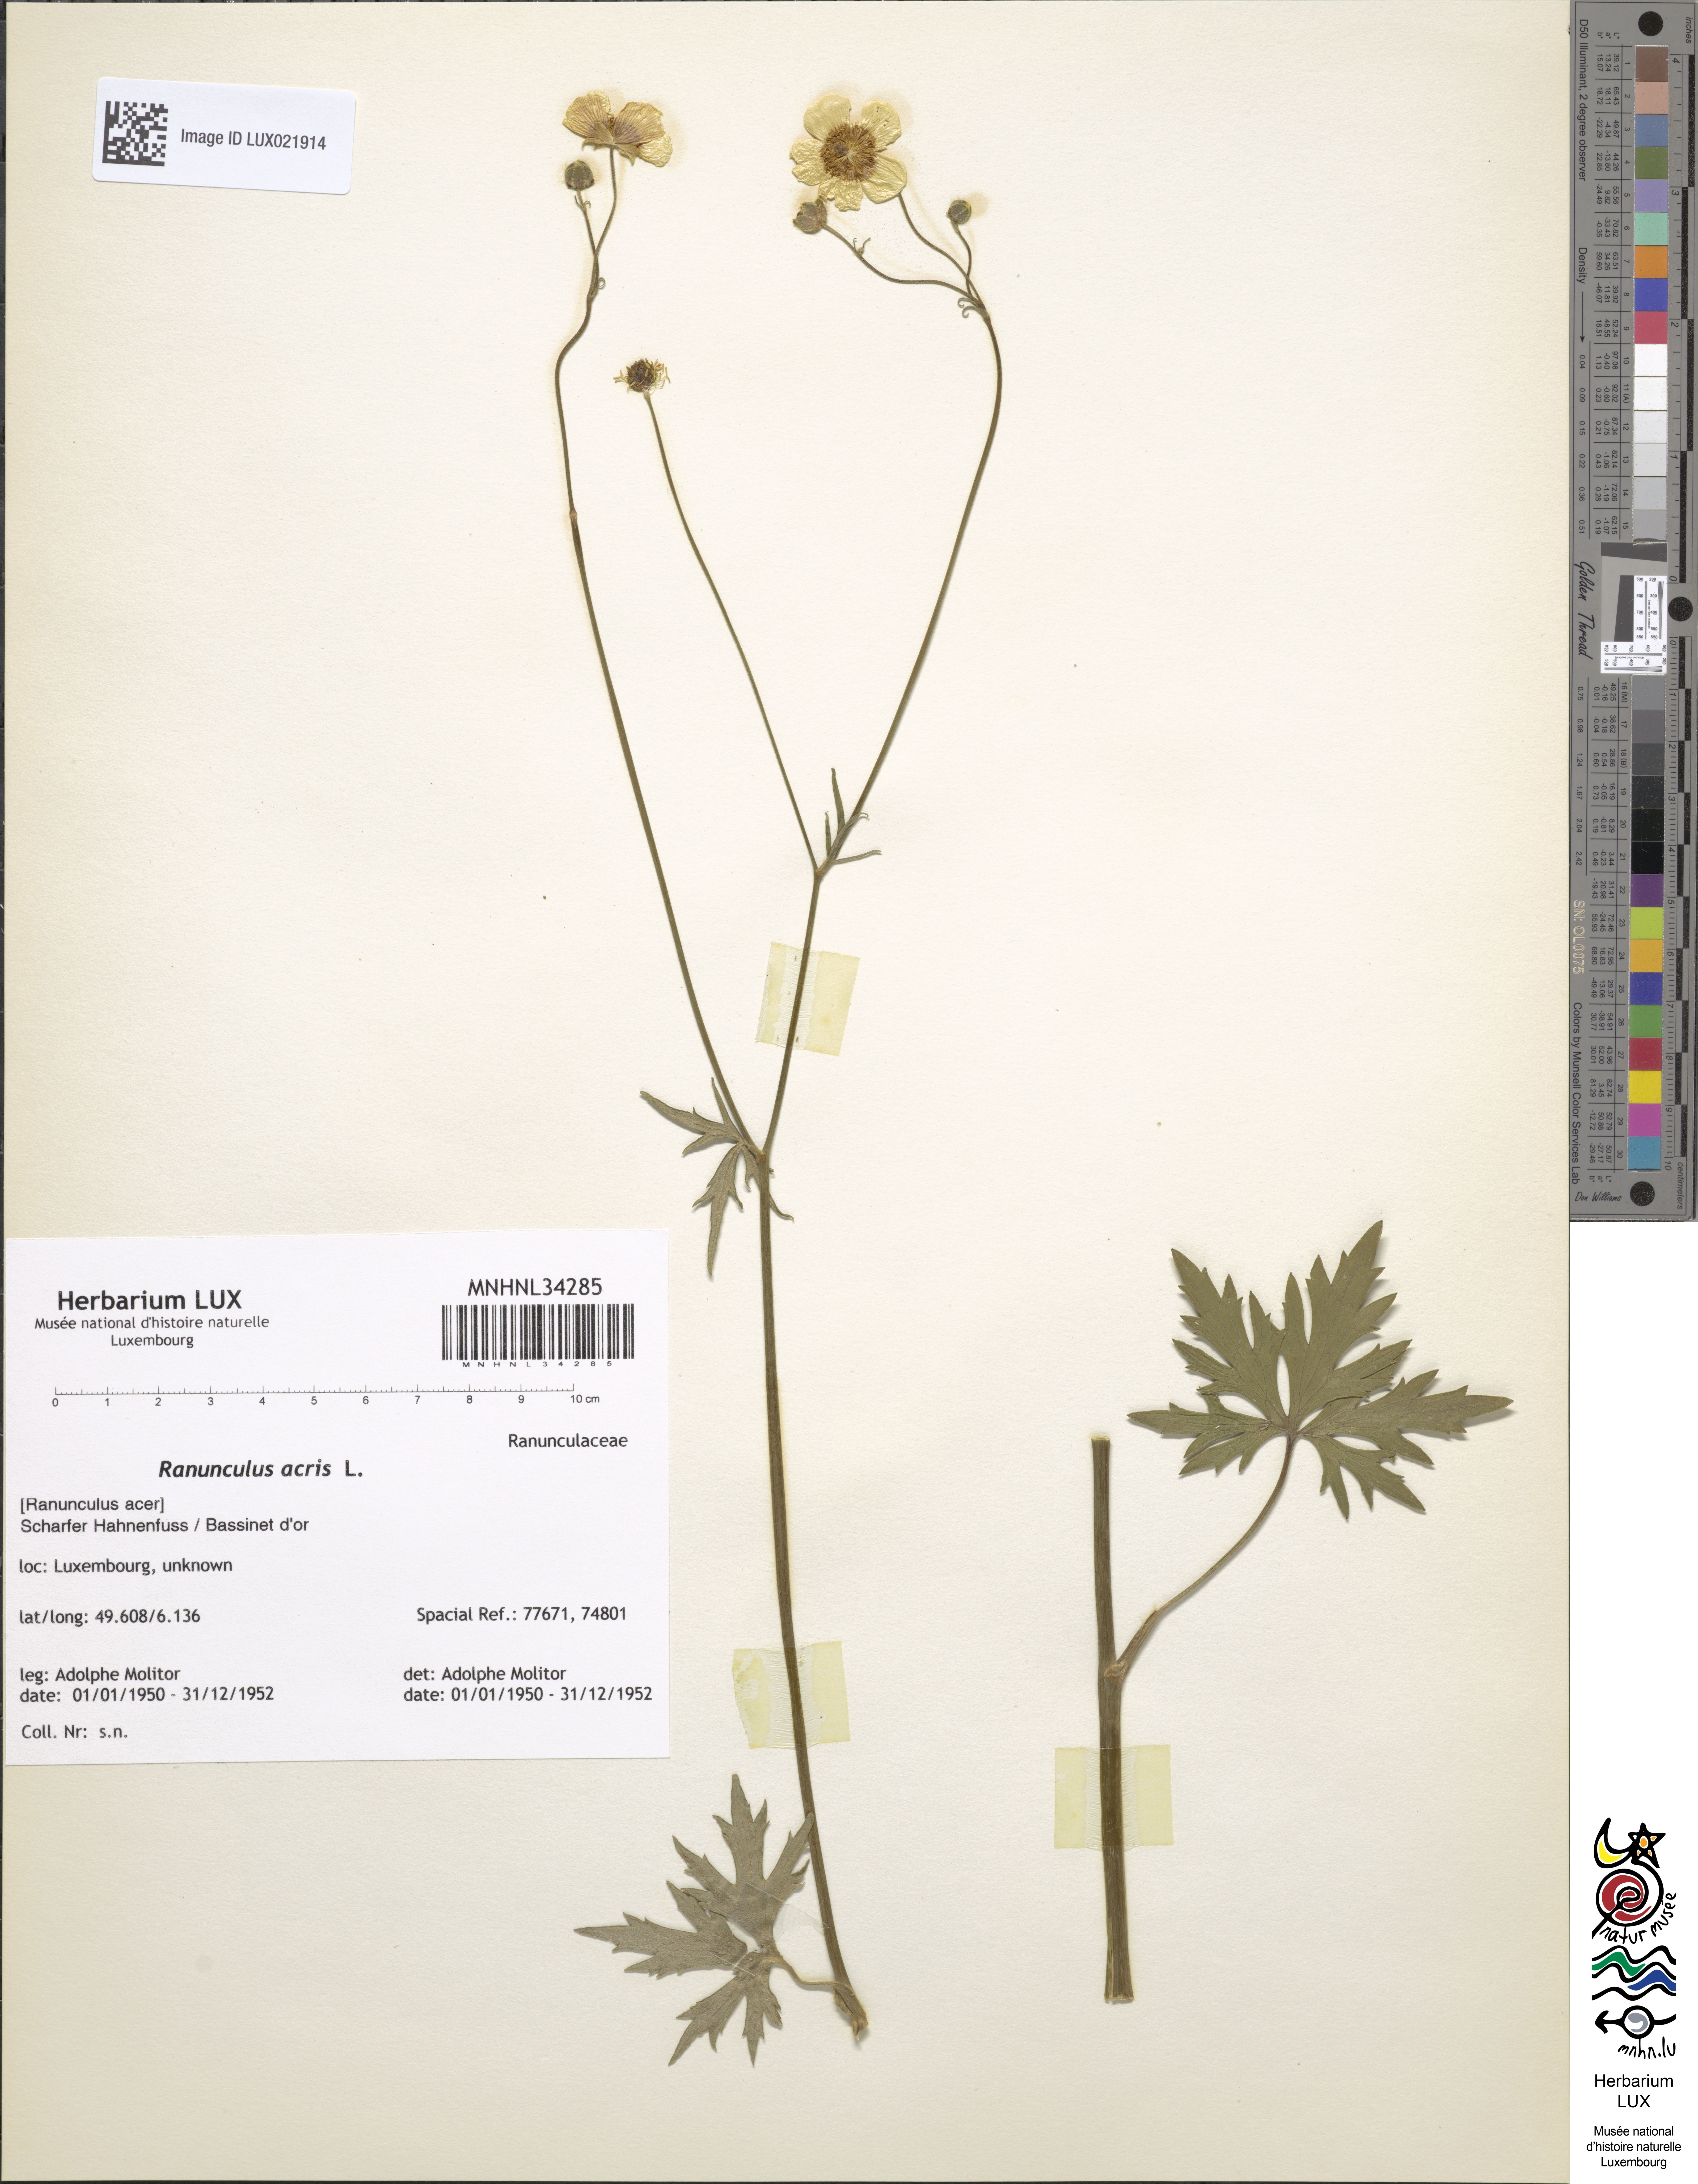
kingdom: Plantae
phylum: Tracheophyta
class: Magnoliopsida
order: Ranunculales
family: Ranunculaceae
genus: Ranunculus
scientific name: Ranunculus acris
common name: Meadow buttercup
